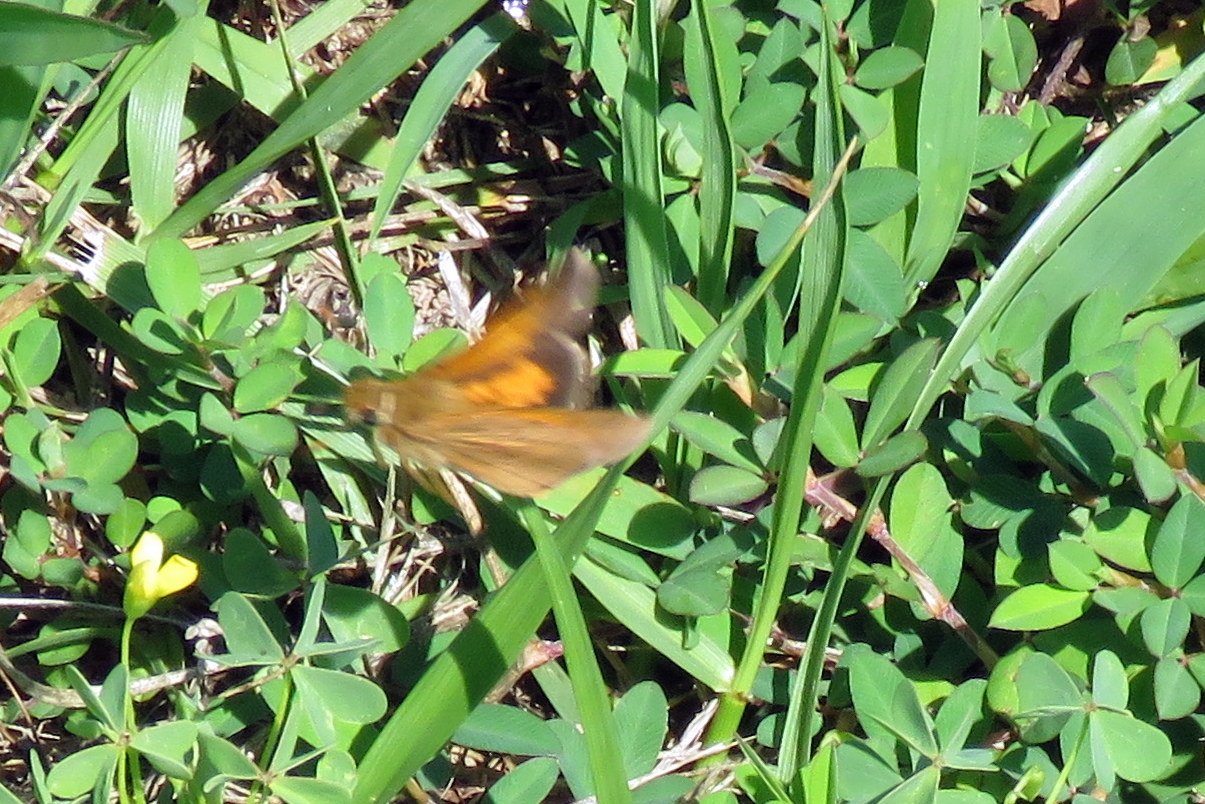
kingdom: Animalia
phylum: Arthropoda
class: Insecta
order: Lepidoptera
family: Hesperiidae
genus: Poanes
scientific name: Poanes aaroni
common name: Aaron's Skipper
